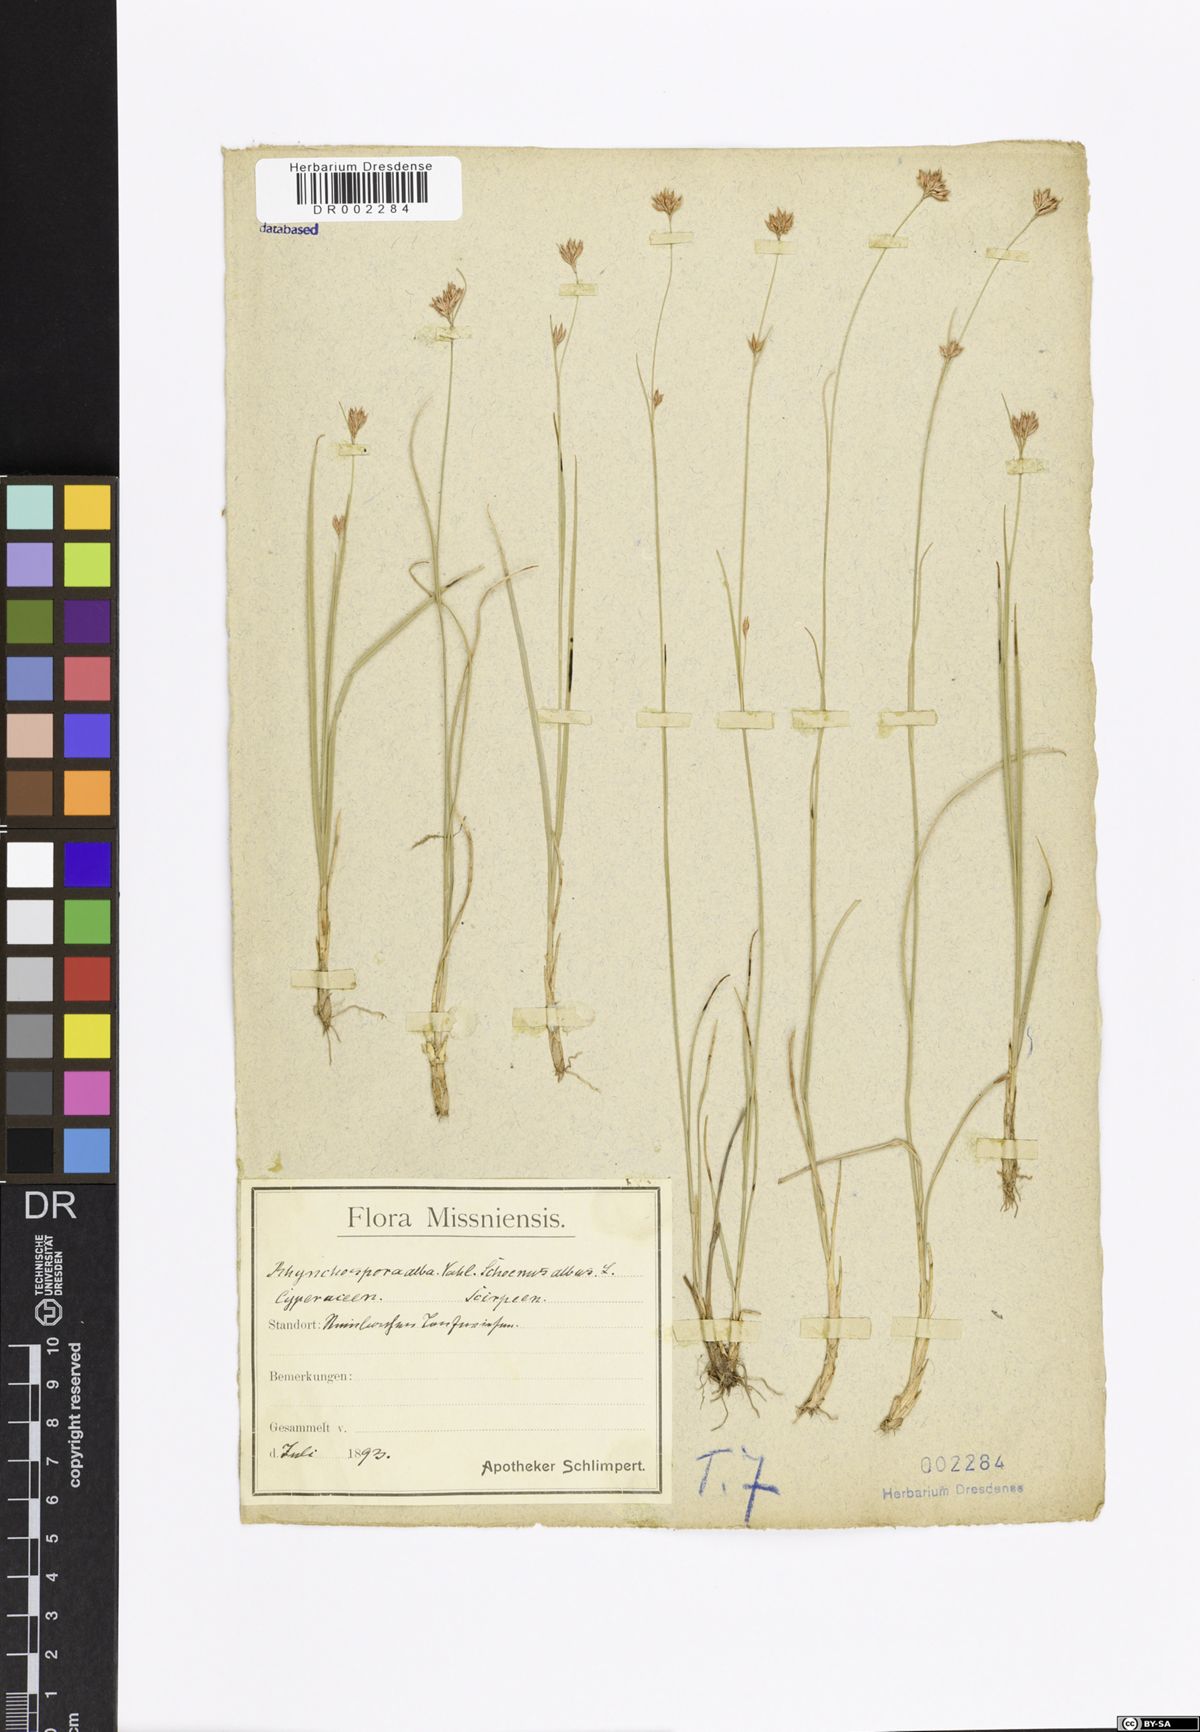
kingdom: Plantae
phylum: Tracheophyta
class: Liliopsida
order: Poales
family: Cyperaceae
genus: Rhynchospora
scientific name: Rhynchospora alba
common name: White beak-sedge
